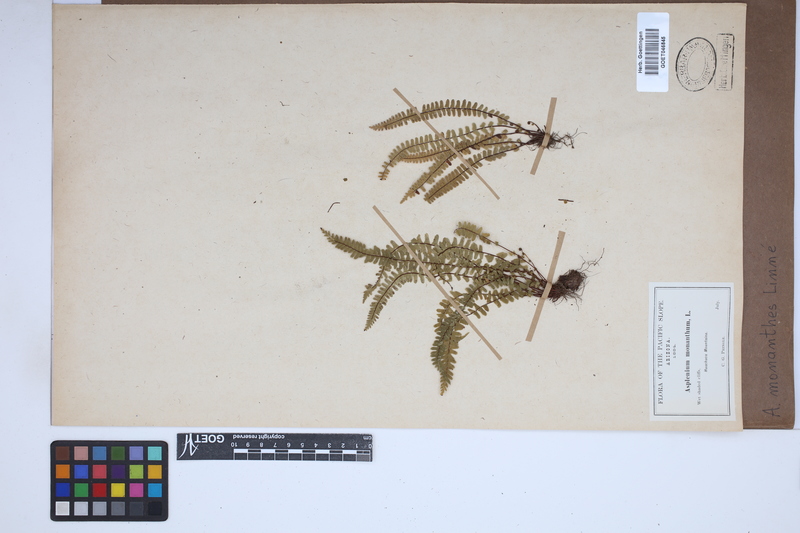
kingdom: Plantae
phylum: Tracheophyta
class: Polypodiopsida
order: Polypodiales
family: Aspleniaceae
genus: Asplenium
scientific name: Asplenium monanthes
